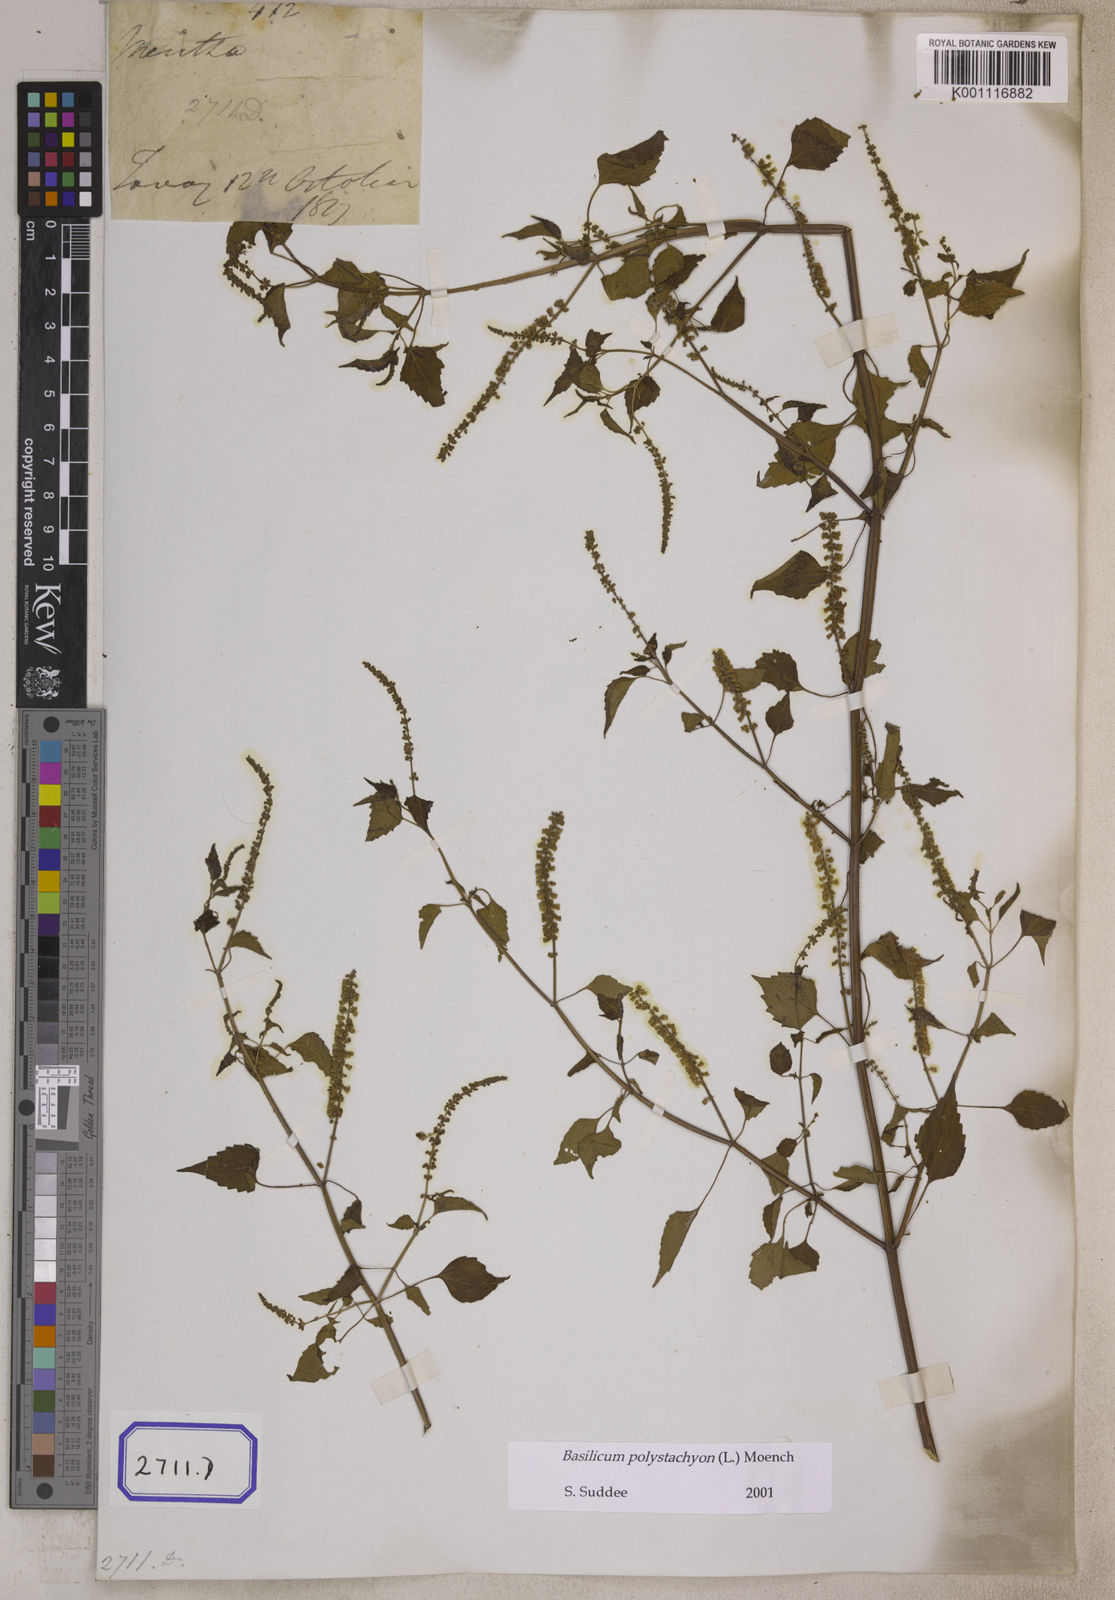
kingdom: Plantae
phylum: Tracheophyta
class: Magnoliopsida
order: Lamiales
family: Lamiaceae
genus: Basilicum
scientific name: Basilicum polystachyon
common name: Musk-basil
